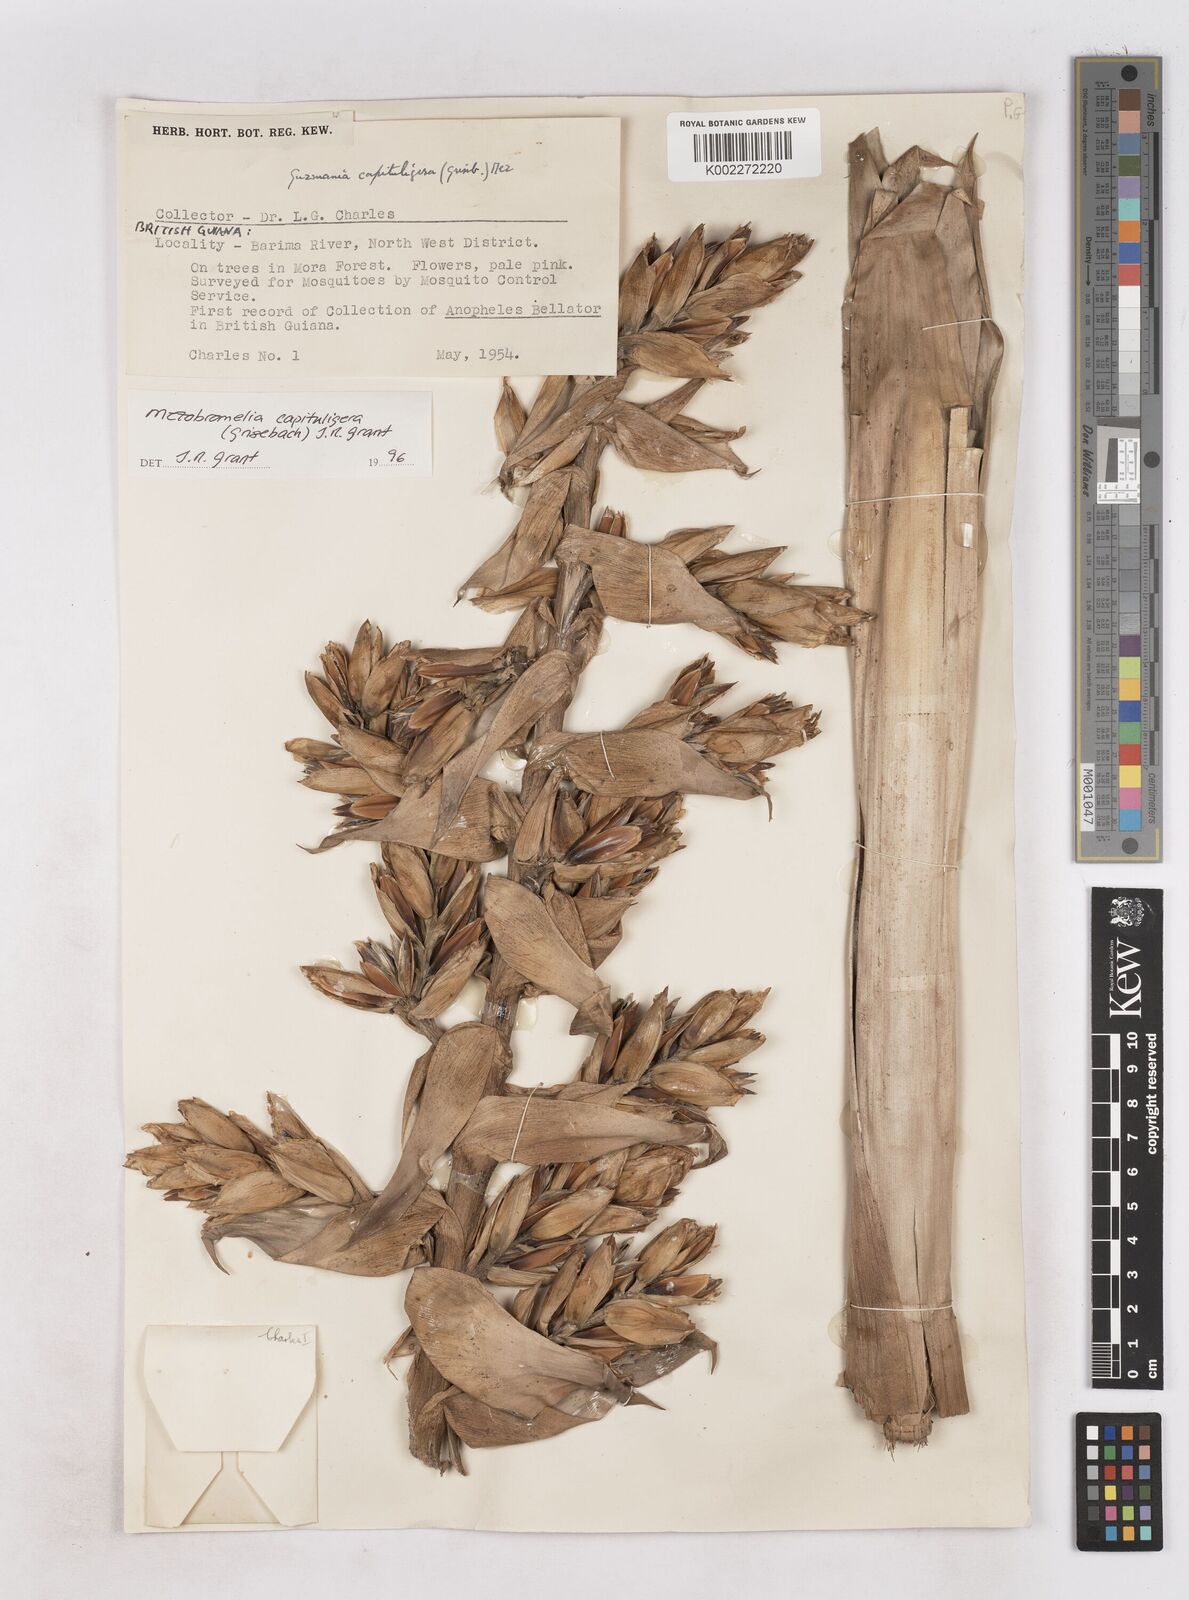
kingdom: Plantae
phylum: Tracheophyta
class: Liliopsida
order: Poales
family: Bromeliaceae
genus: Cipuropsis
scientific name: Cipuropsis capituligera
